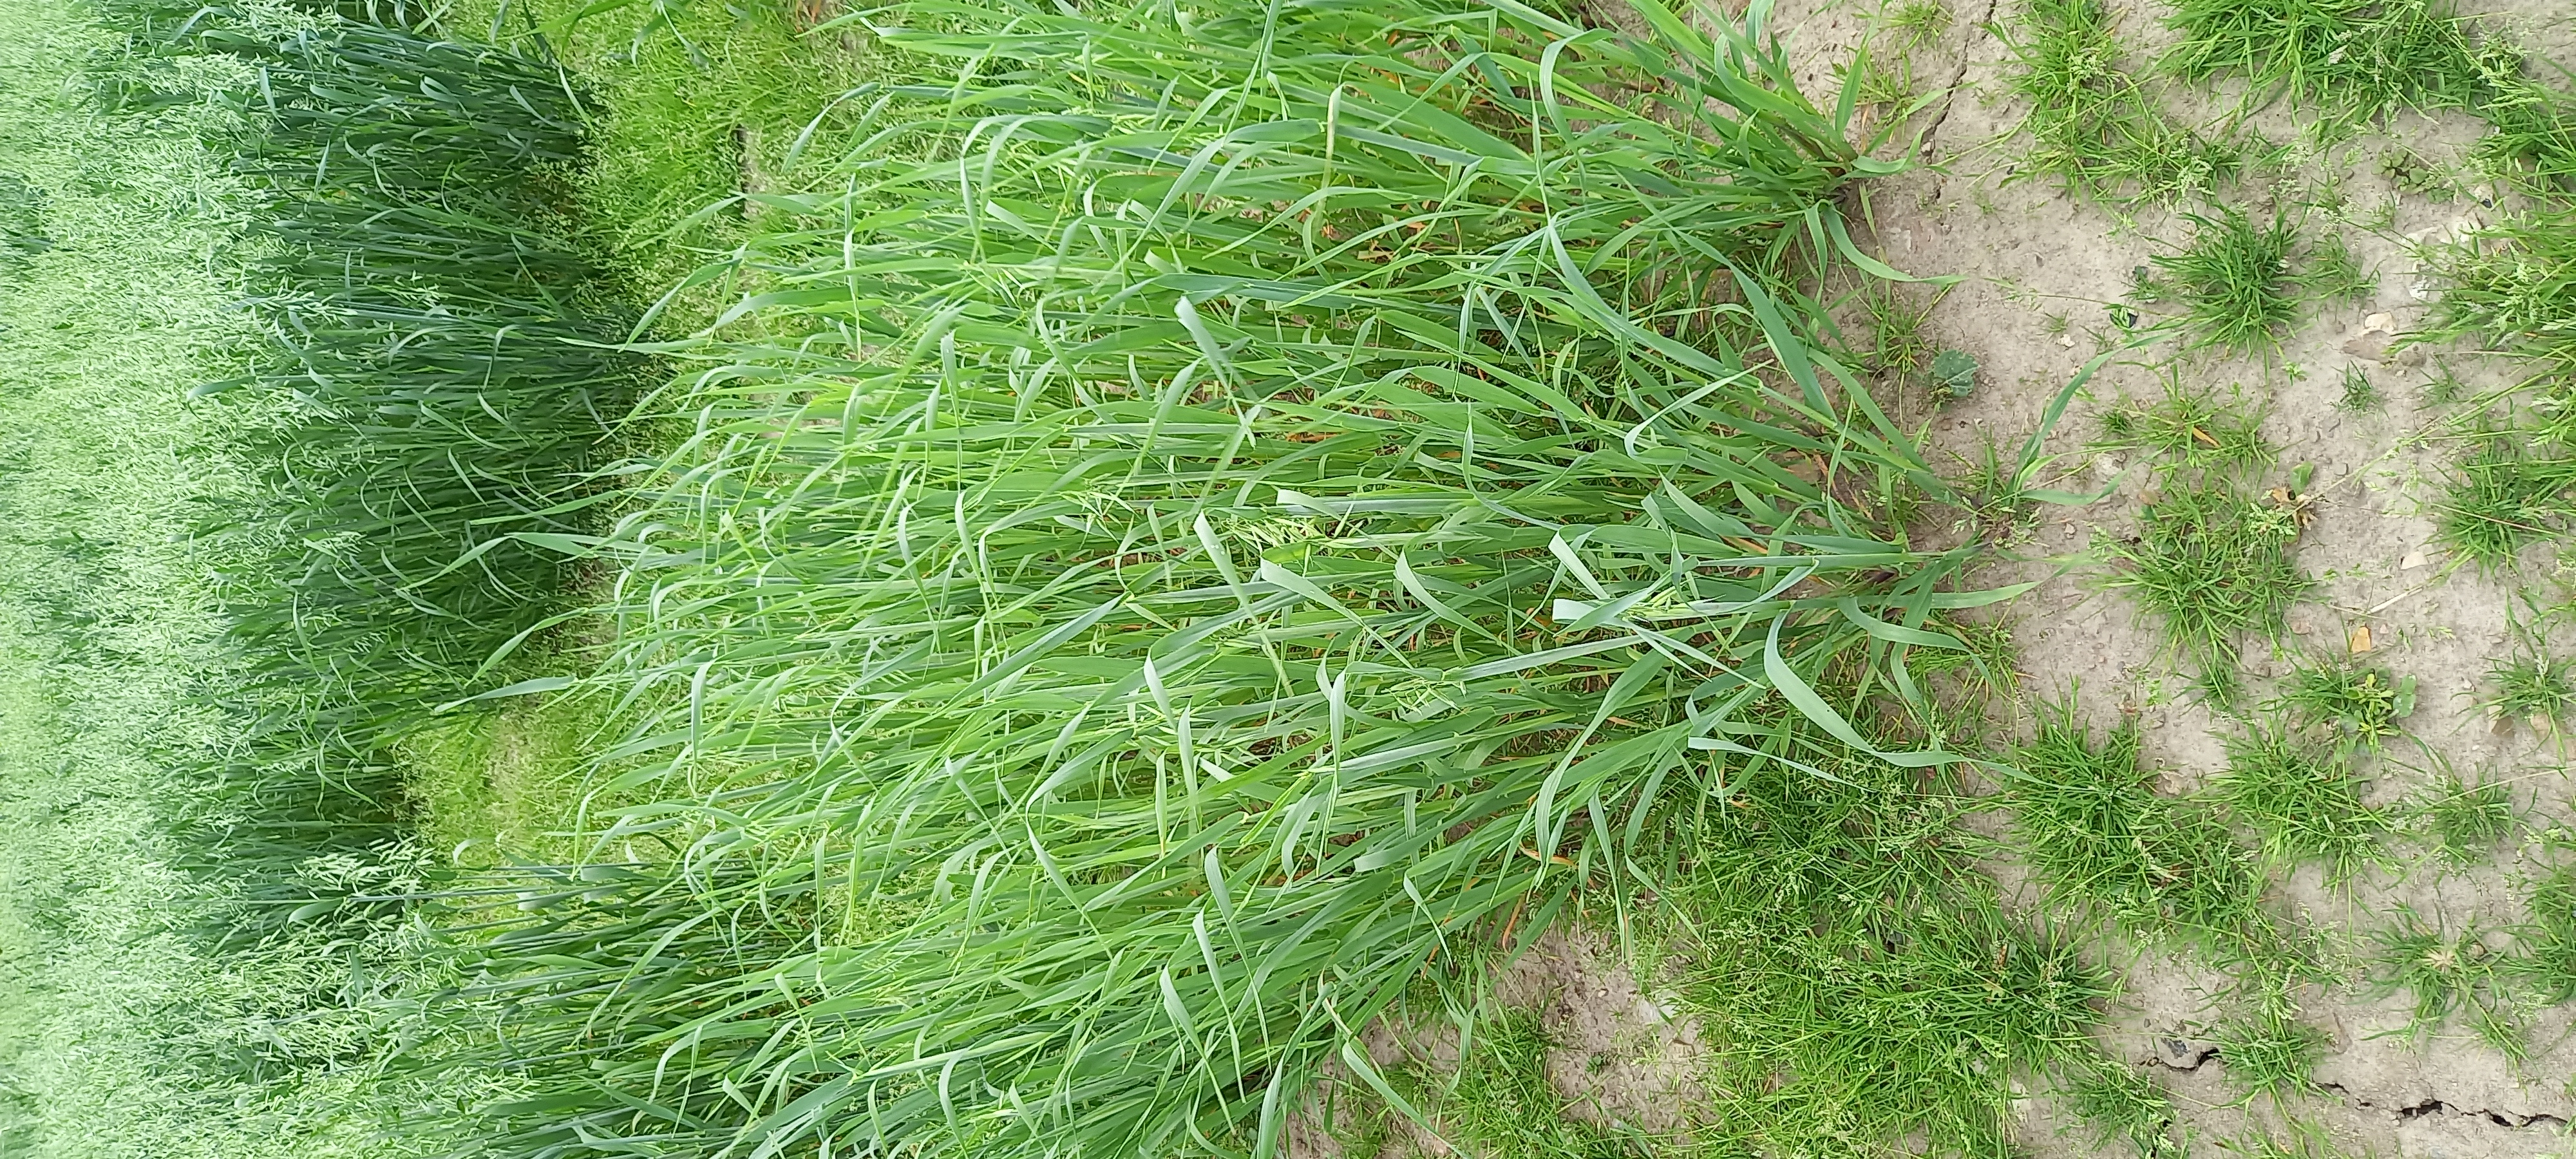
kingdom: Plantae
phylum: Tracheophyta
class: Liliopsida
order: Poales
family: Poaceae
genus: Avena
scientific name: Avena sativa
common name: Oat
